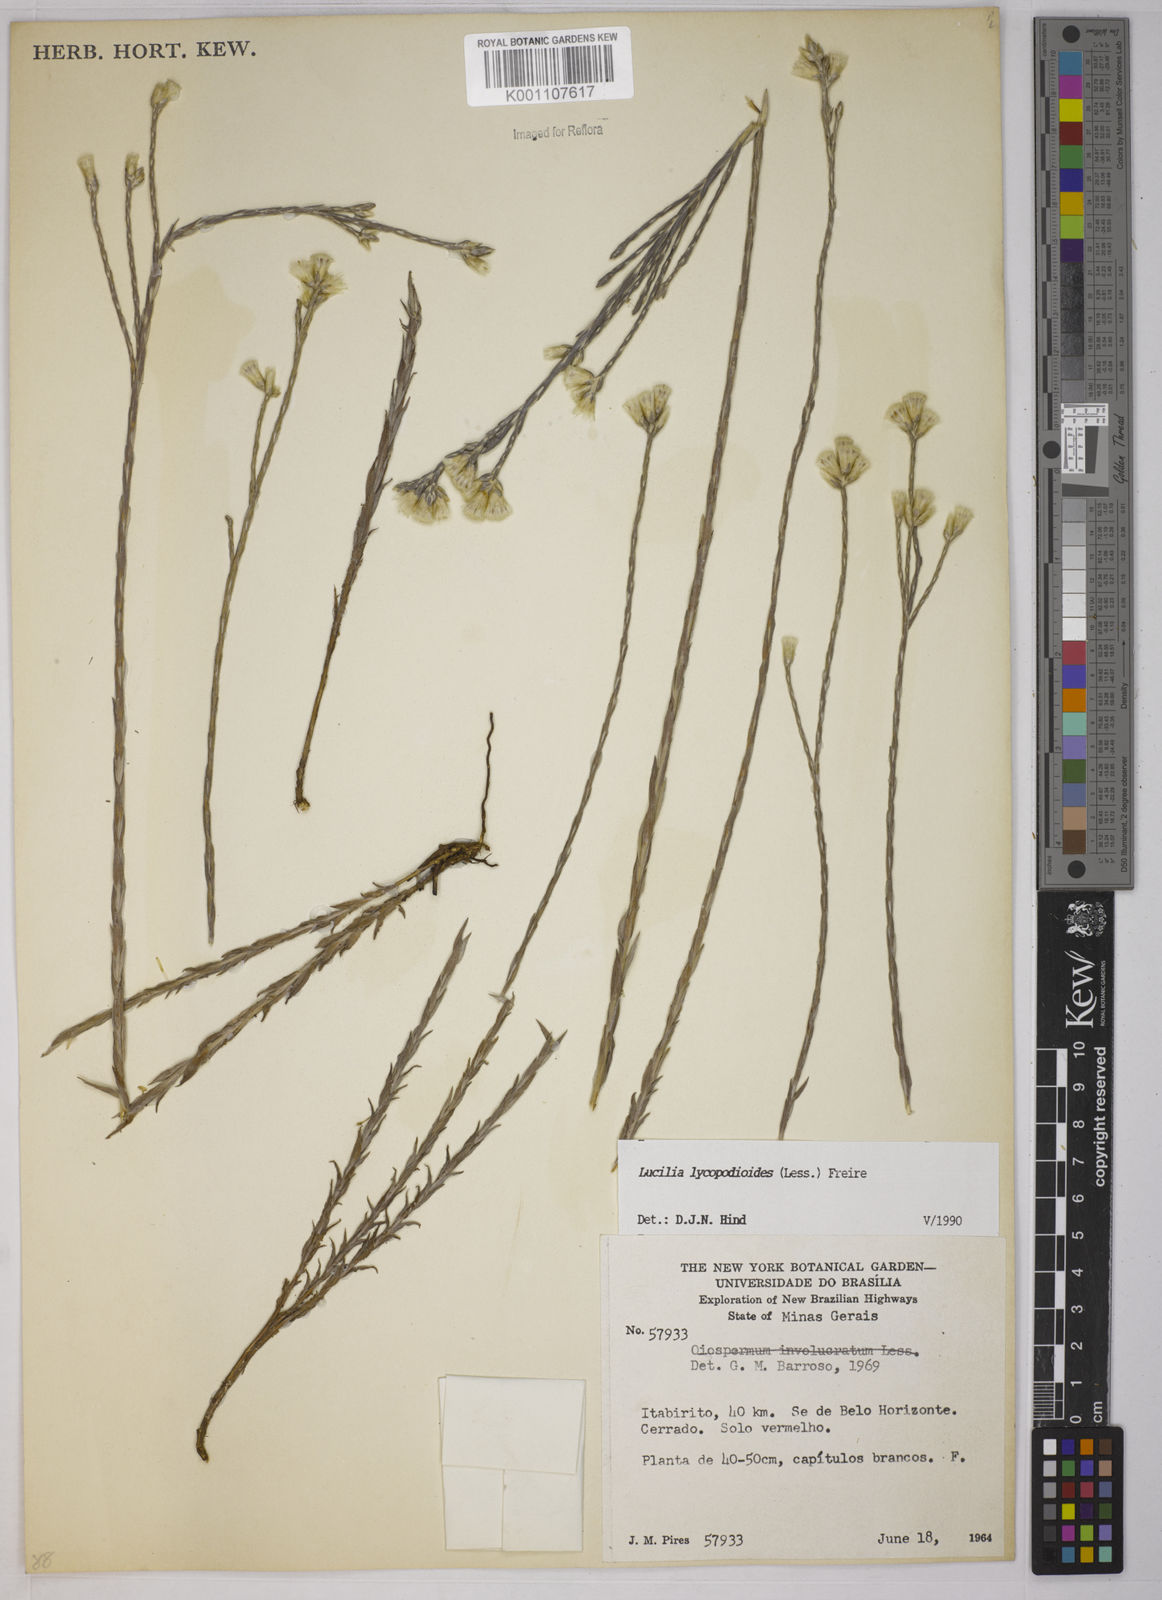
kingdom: Plantae
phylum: Tracheophyta
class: Magnoliopsida
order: Asterales
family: Asteraceae
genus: Lucilia
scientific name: Lucilia lycopodioides
